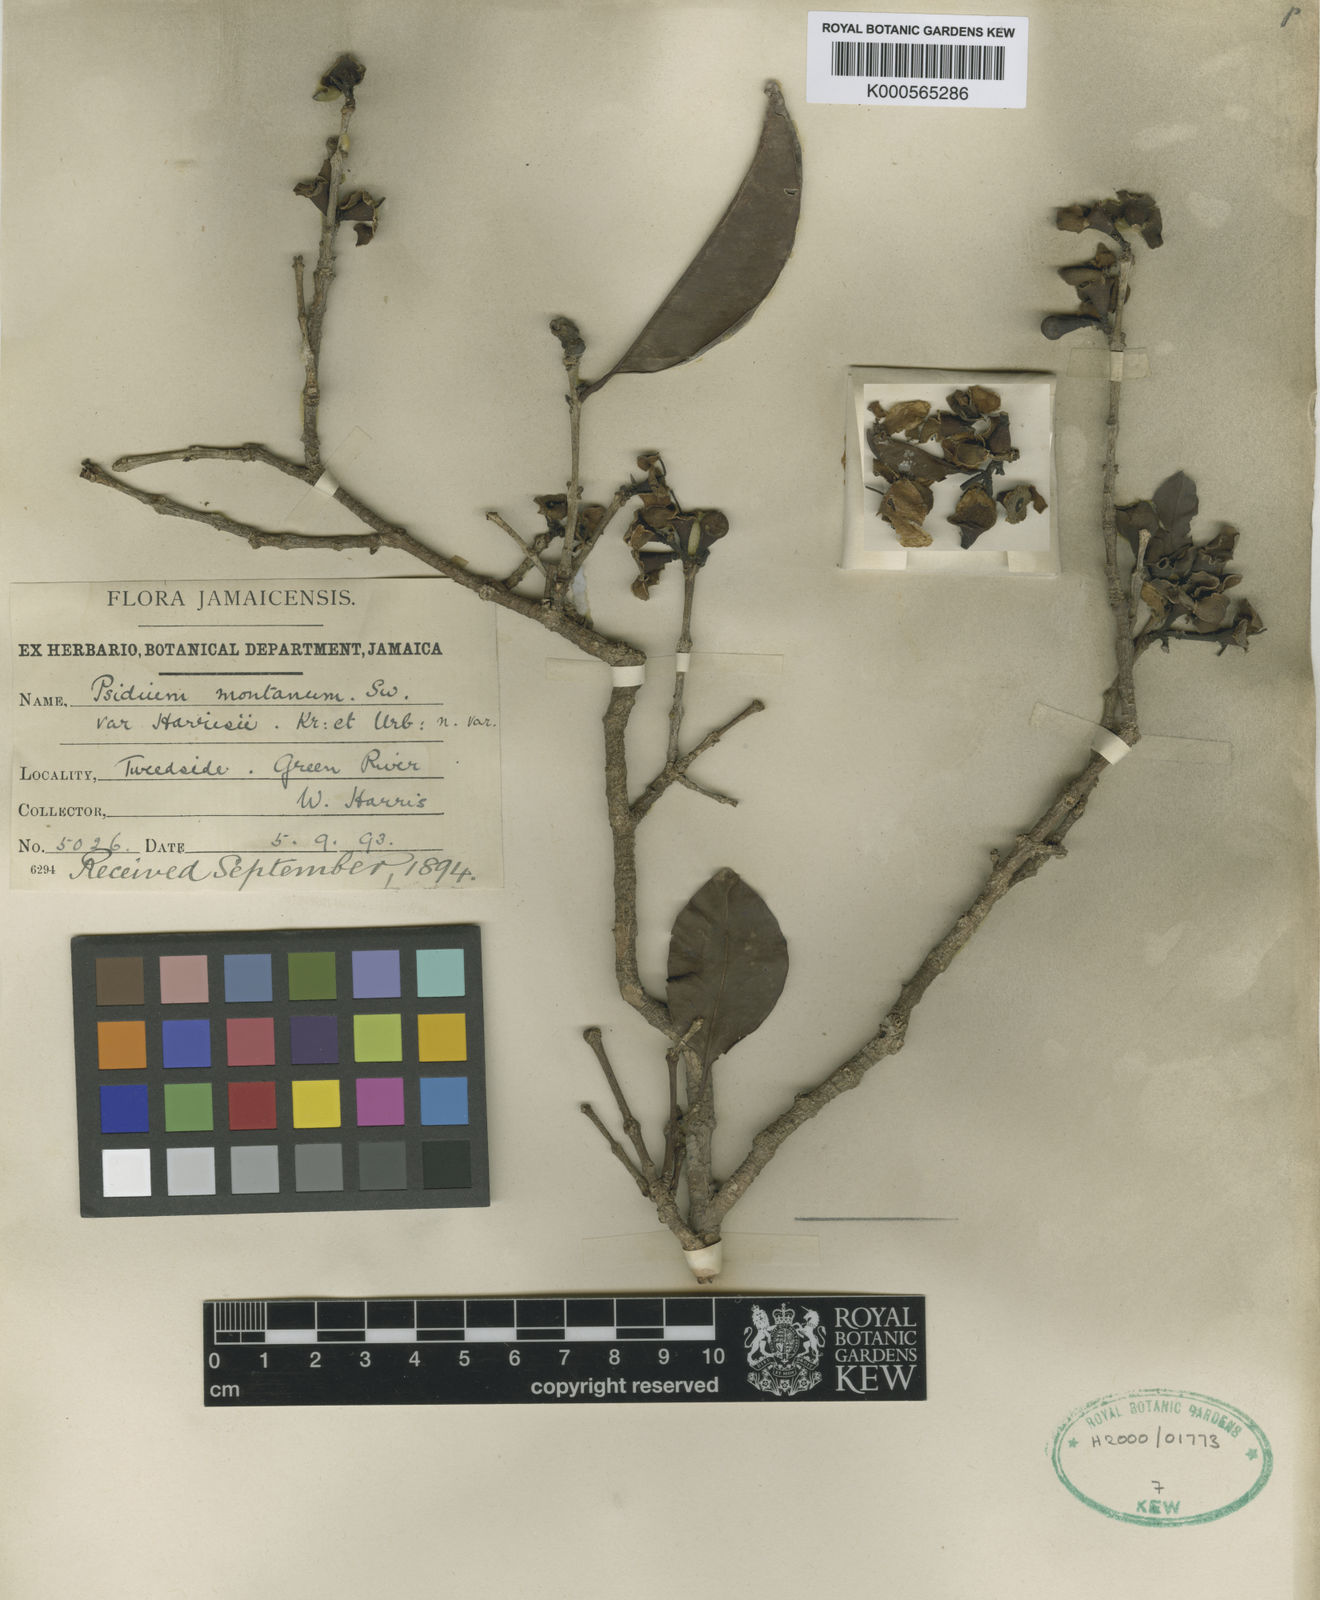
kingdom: Plantae
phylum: Tracheophyta
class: Magnoliopsida
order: Myrtales
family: Myrtaceae
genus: Psidium
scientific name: Psidium montanum
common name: Mountain guava
